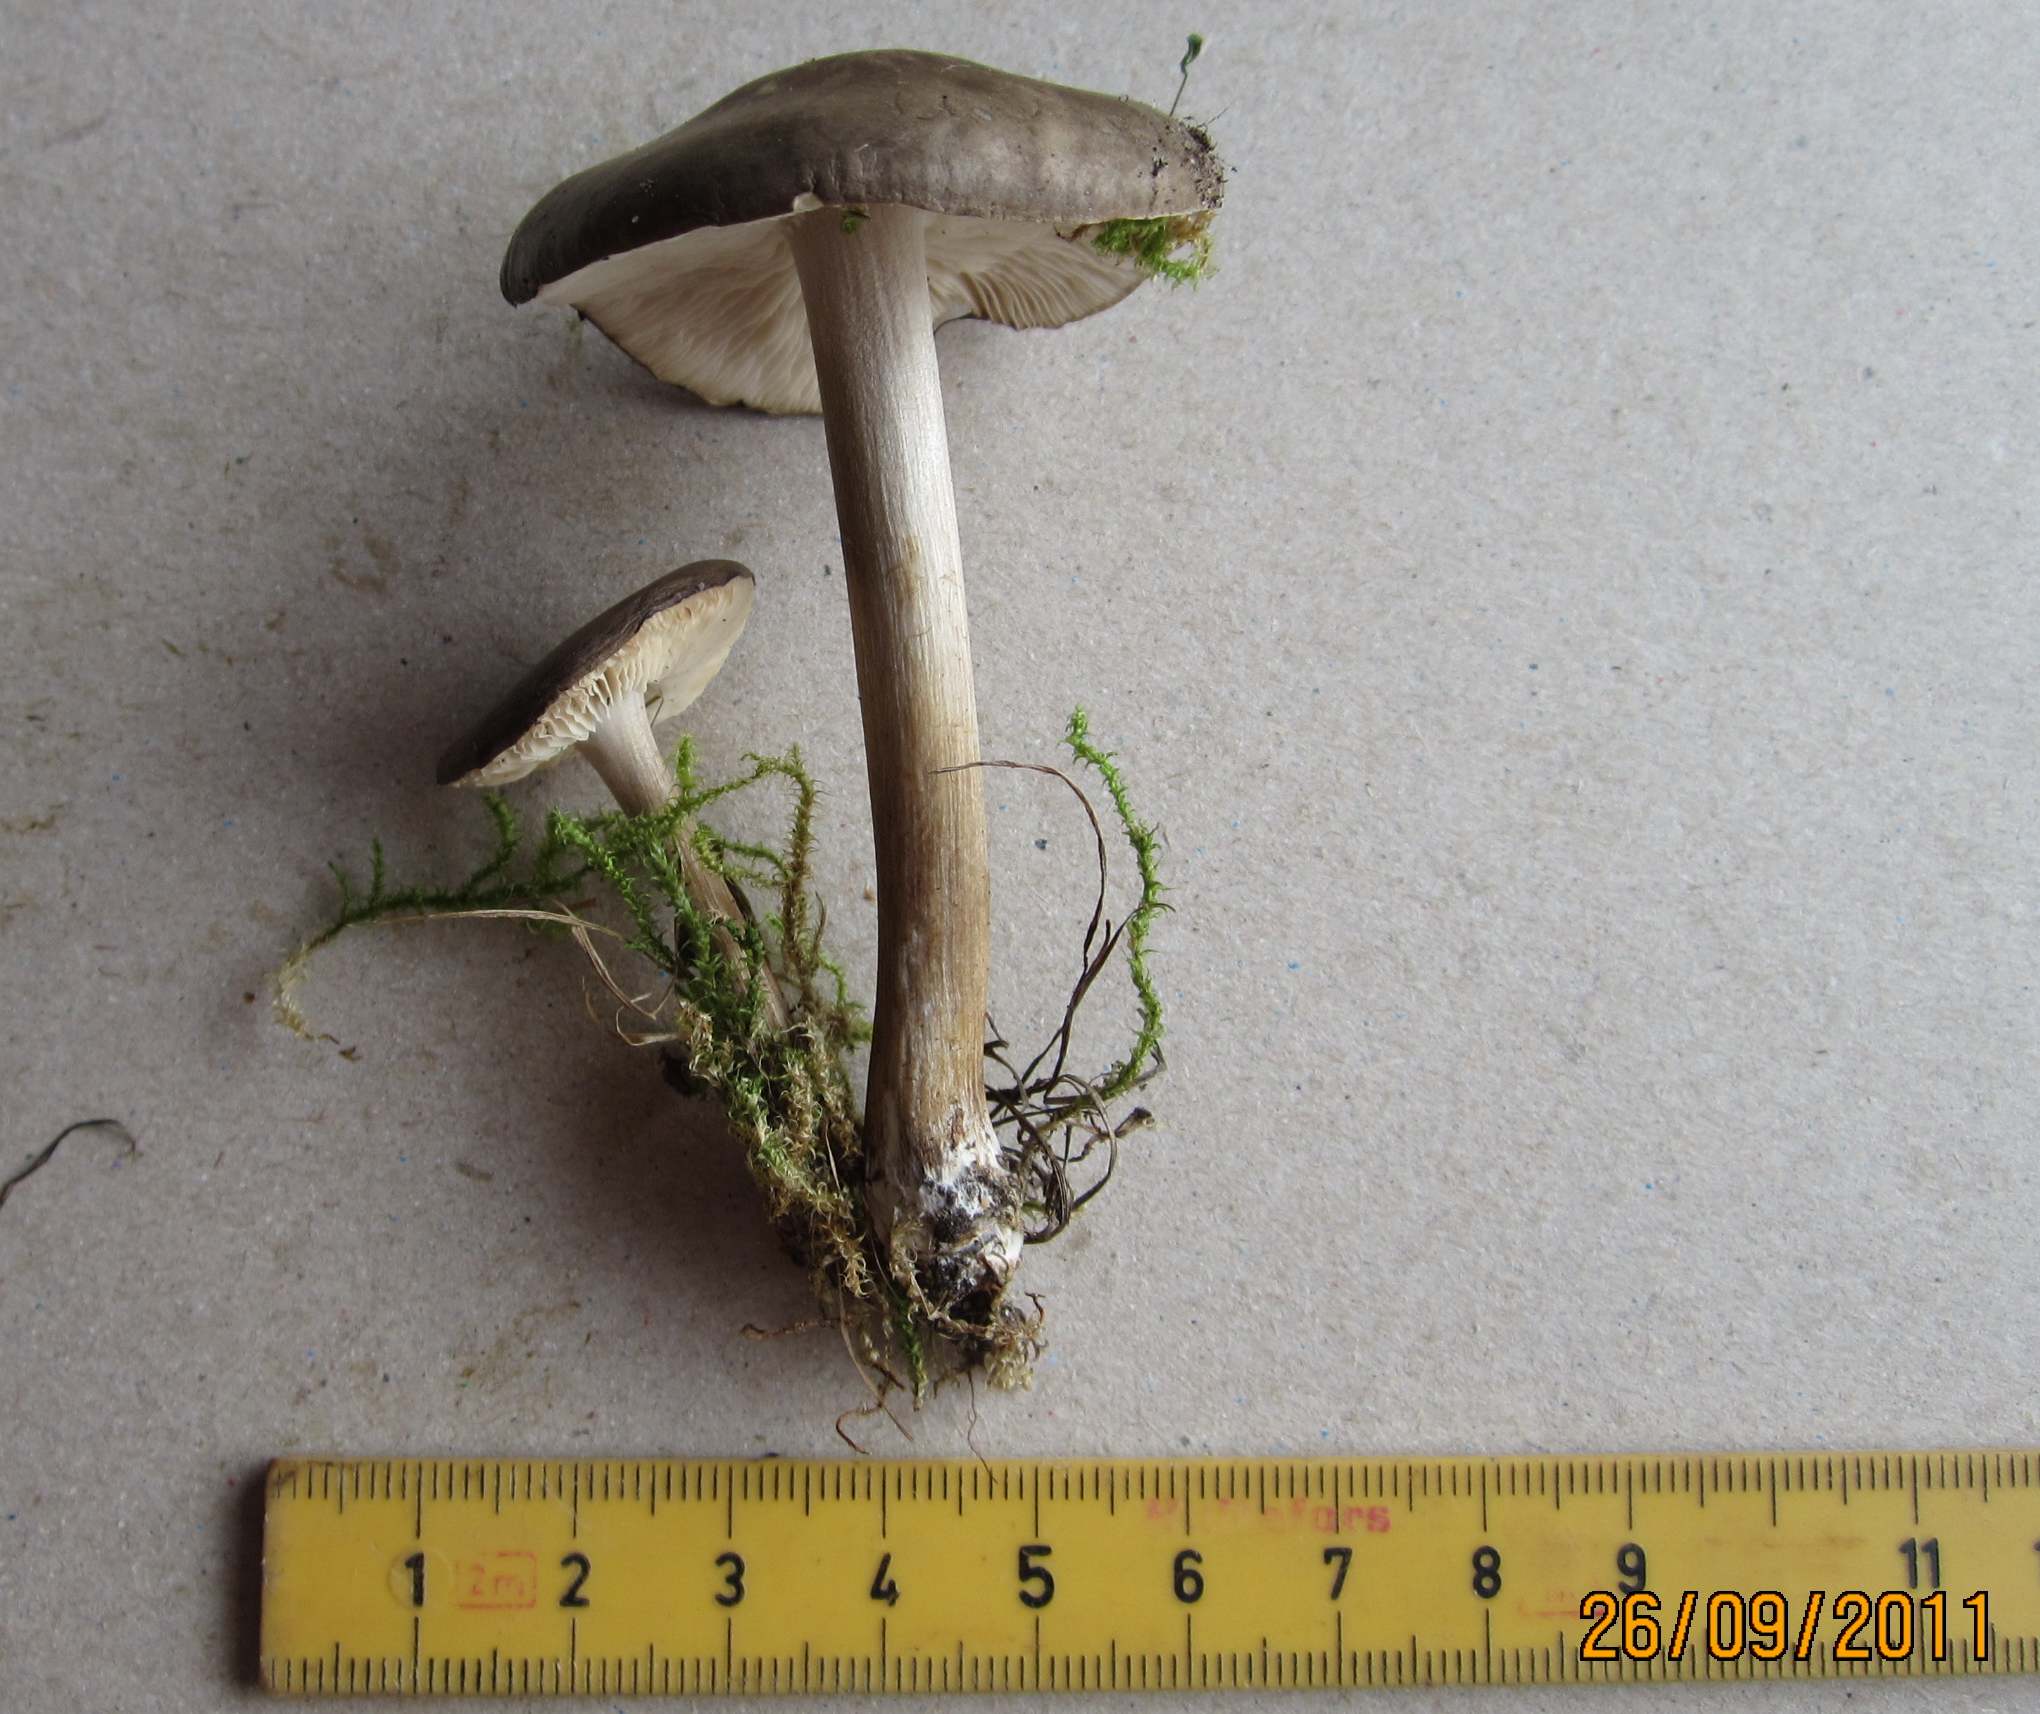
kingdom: Fungi
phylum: Basidiomycota
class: Agaricomycetes
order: Agaricales
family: Tricholomataceae
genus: Melanoleuca
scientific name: Melanoleuca polioleuca
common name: almindelig munkehat
